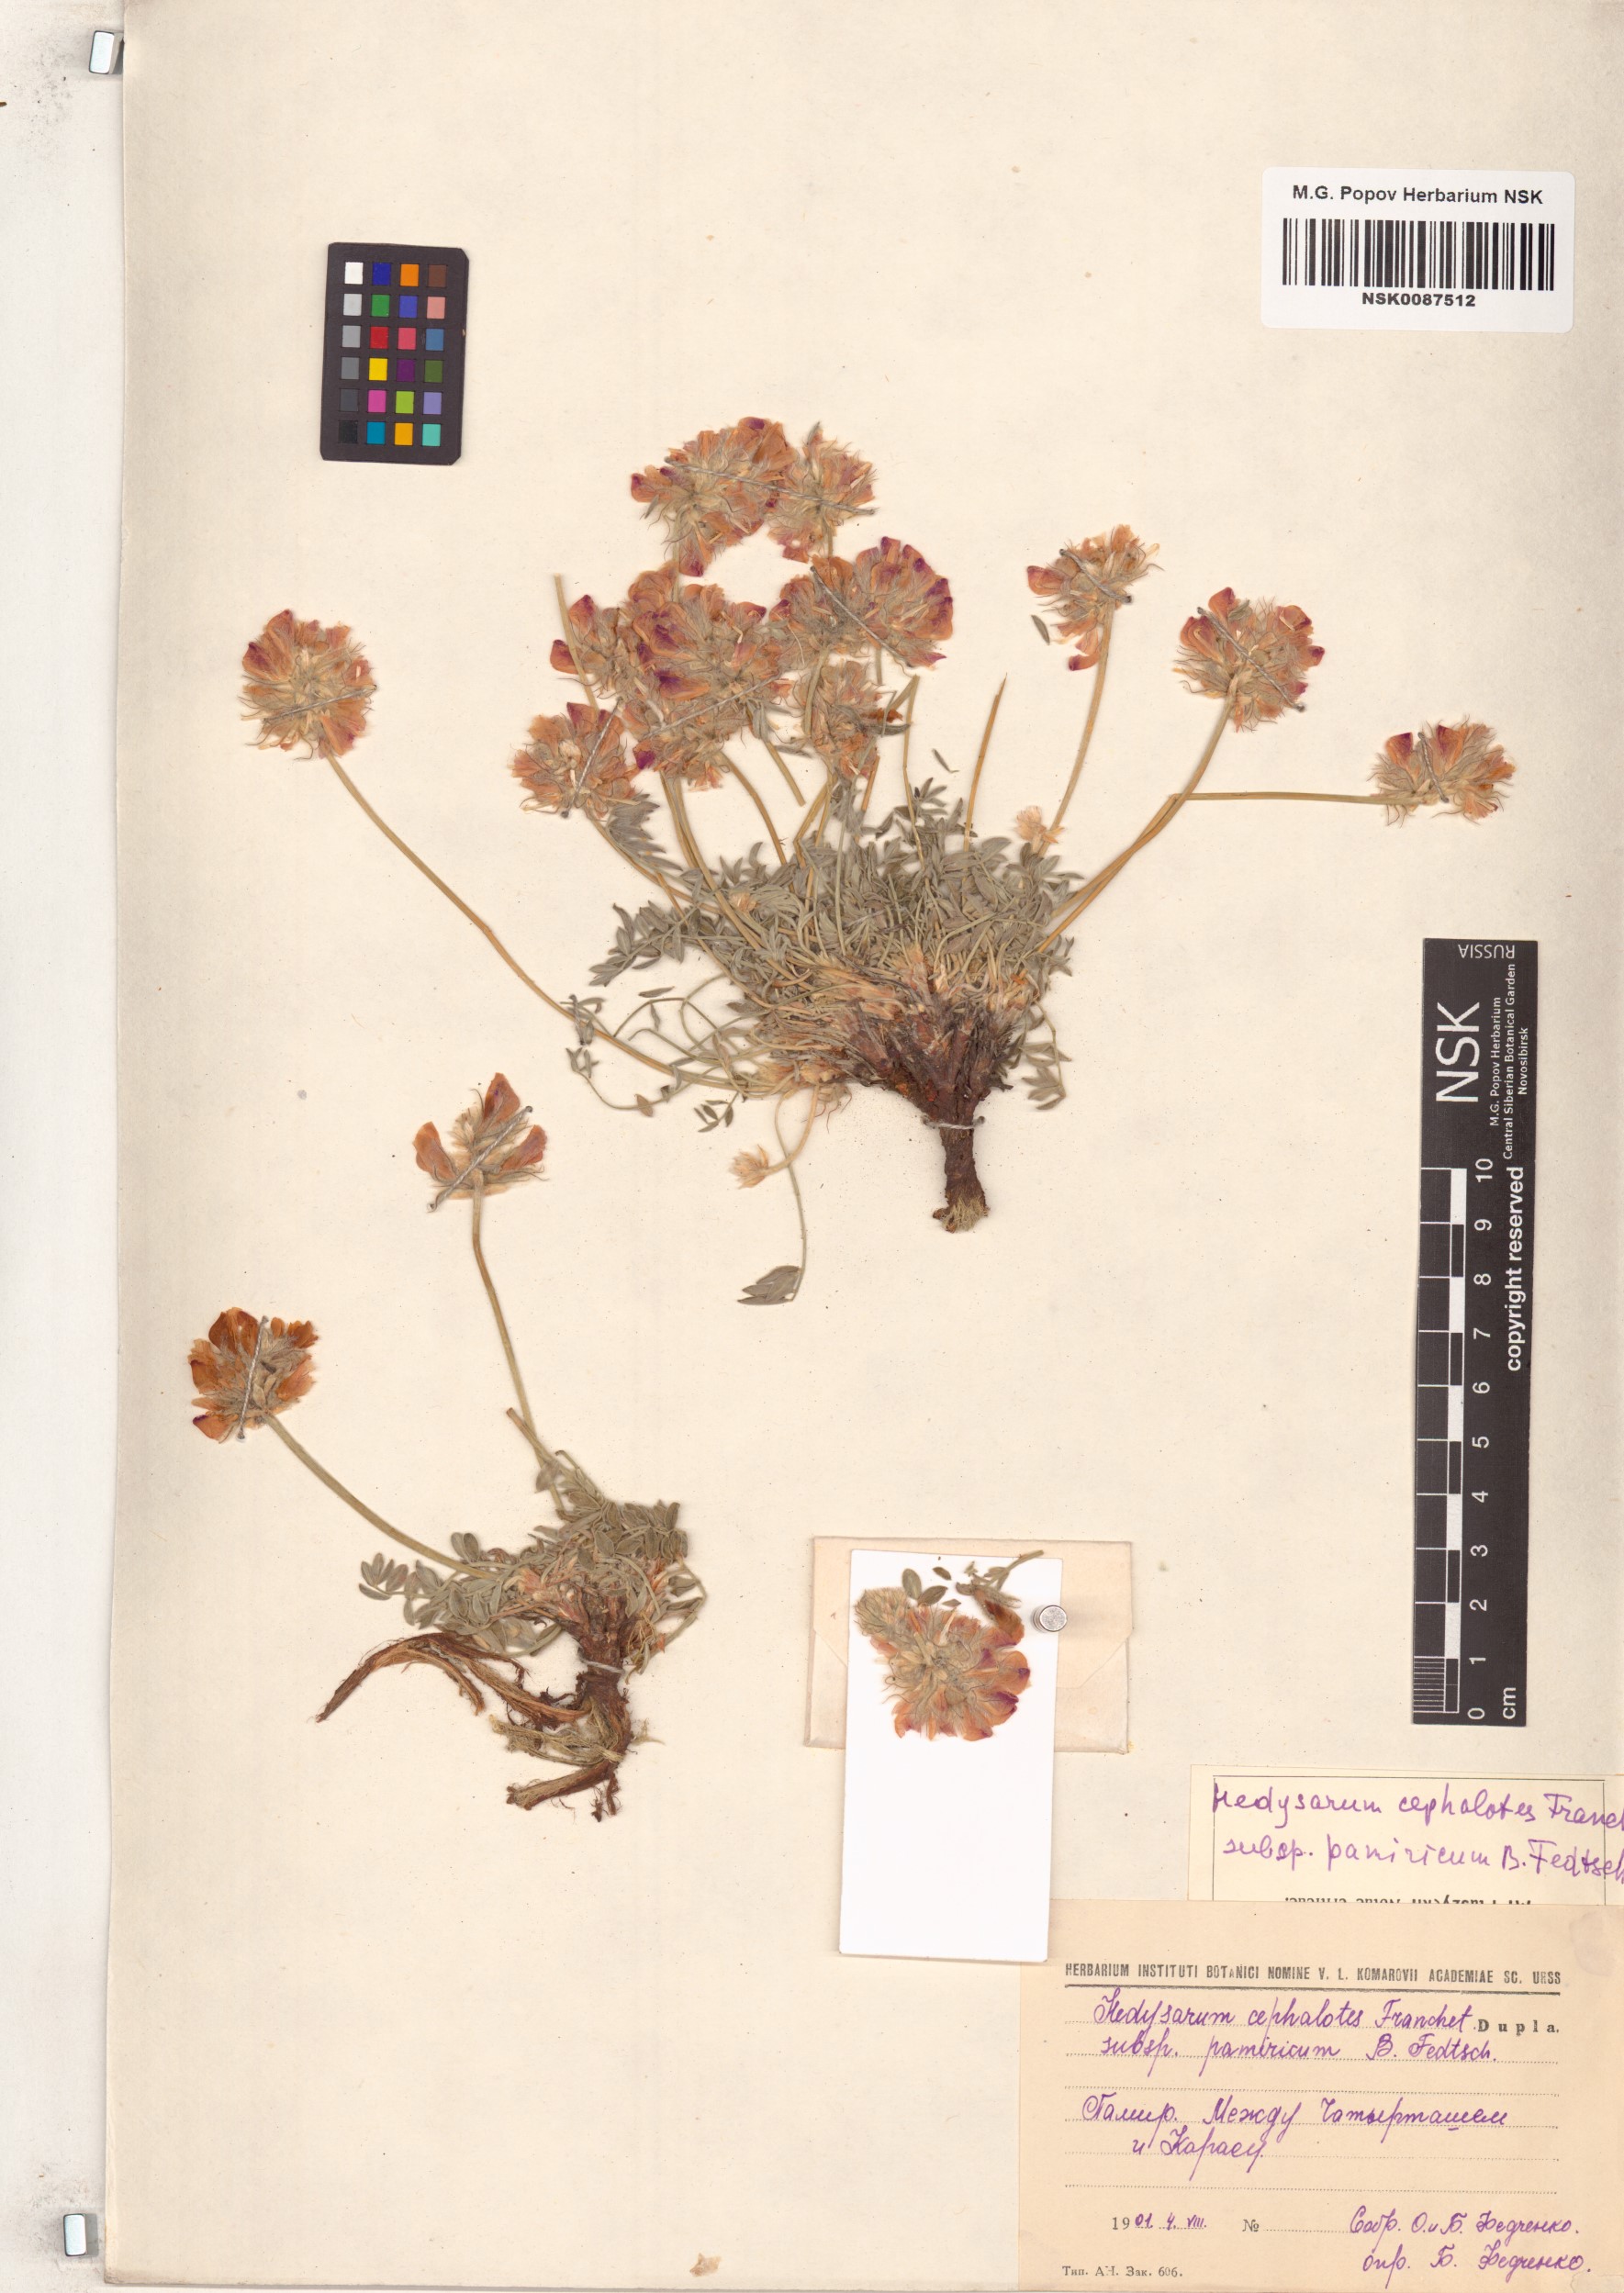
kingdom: Plantae
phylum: Tracheophyta
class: Magnoliopsida
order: Fabales
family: Fabaceae
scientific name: Fabaceae
